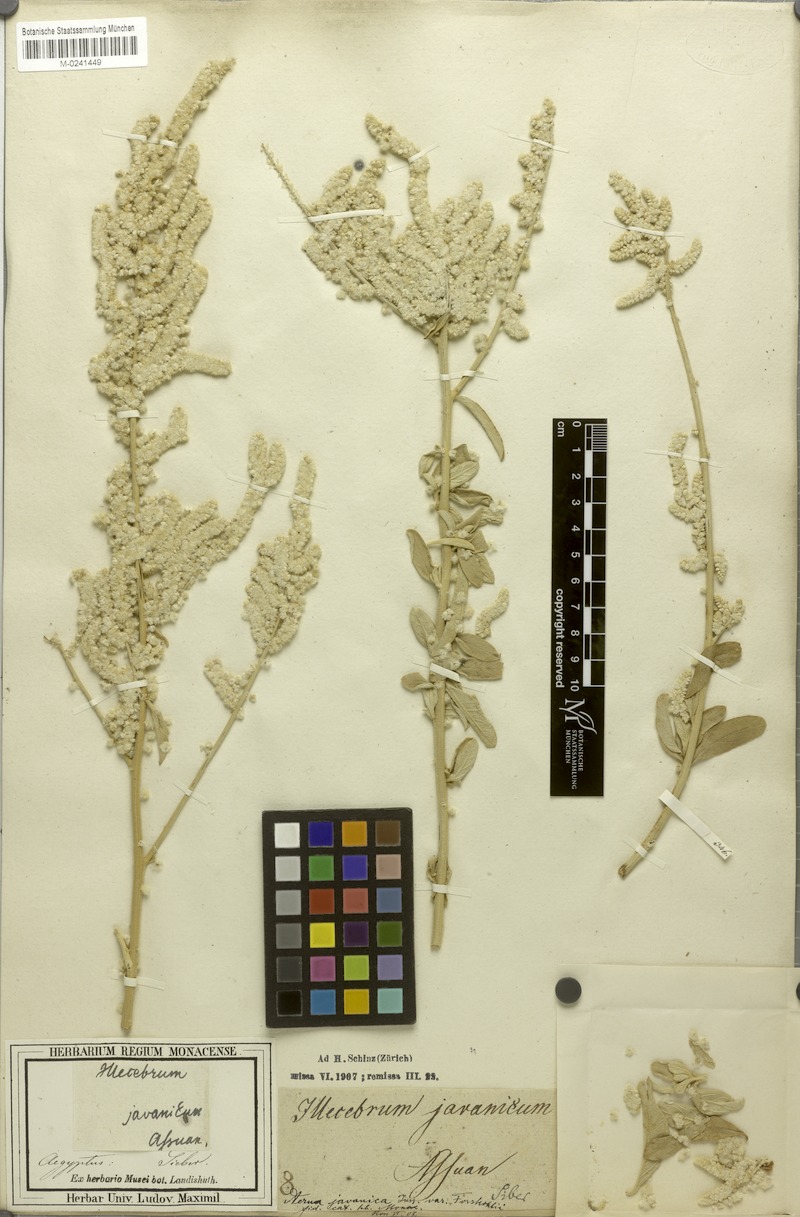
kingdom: Plantae
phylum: Tracheophyta
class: Magnoliopsida
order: Caryophyllales
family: Amaranthaceae
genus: Aerva
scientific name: Aerva javanica
